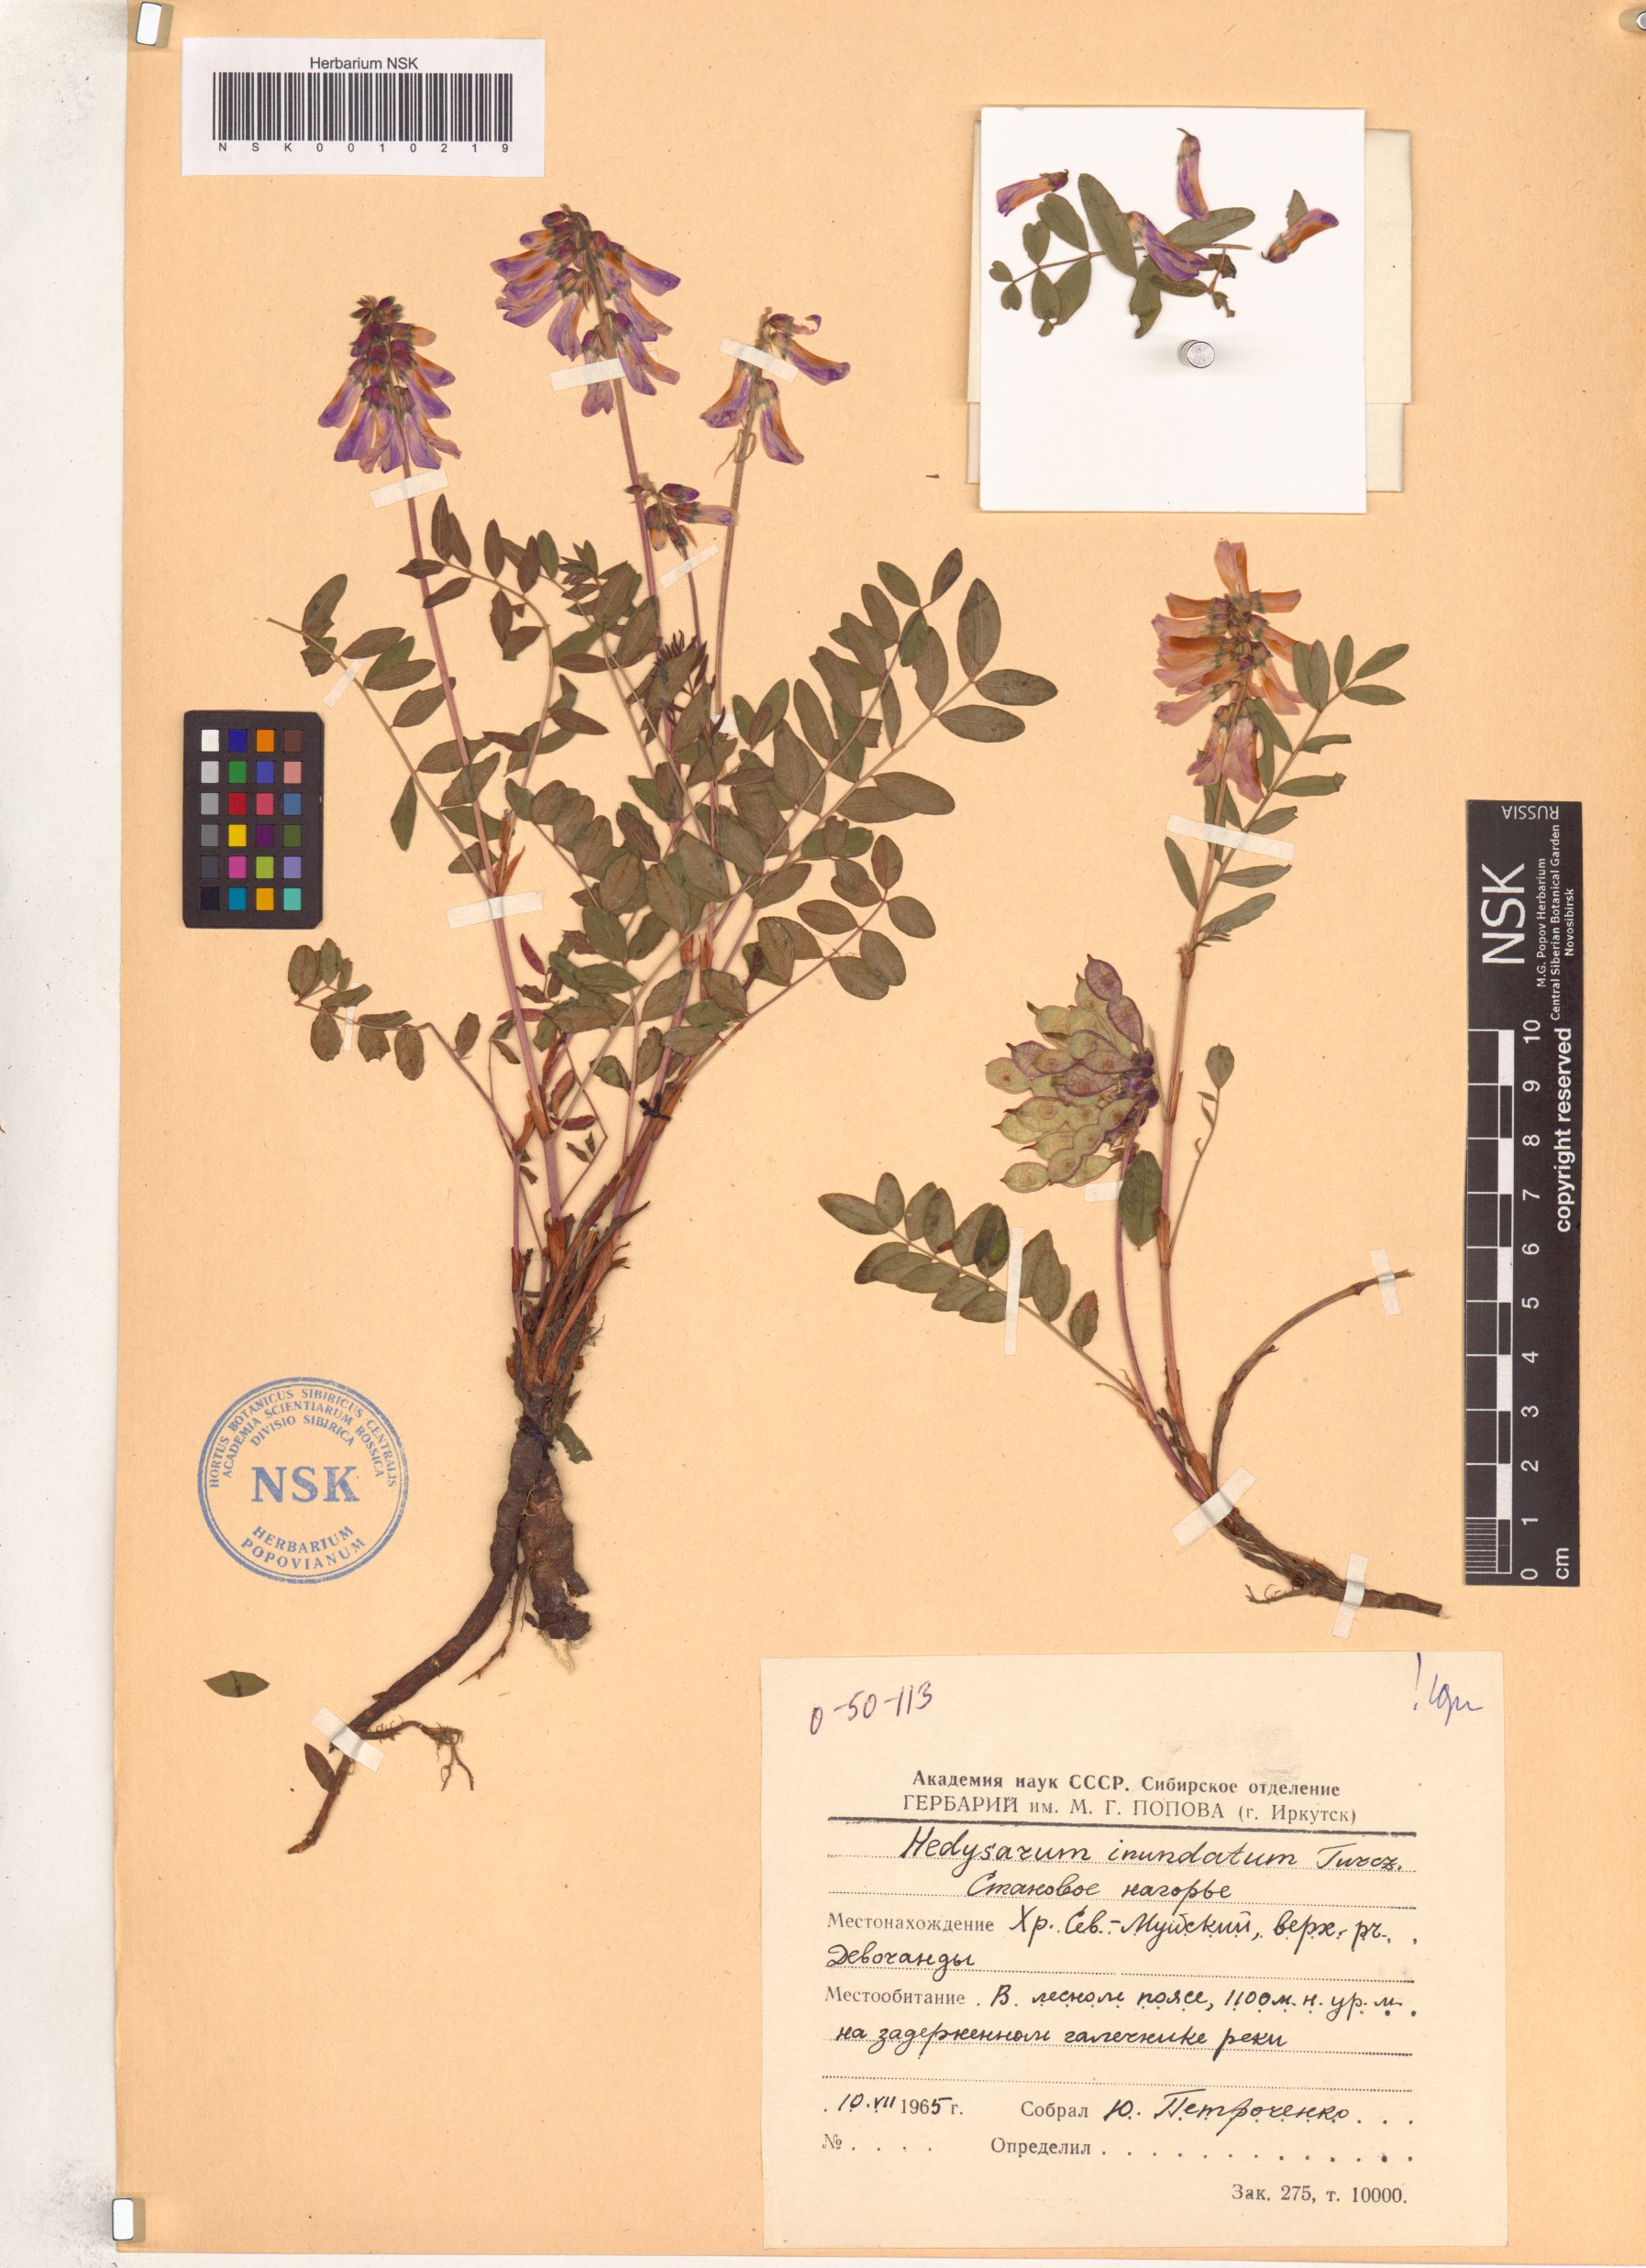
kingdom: Plantae
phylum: Tracheophyta
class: Magnoliopsida
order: Fabales
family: Fabaceae
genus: Hedysarum
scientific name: Hedysarum inundatum
